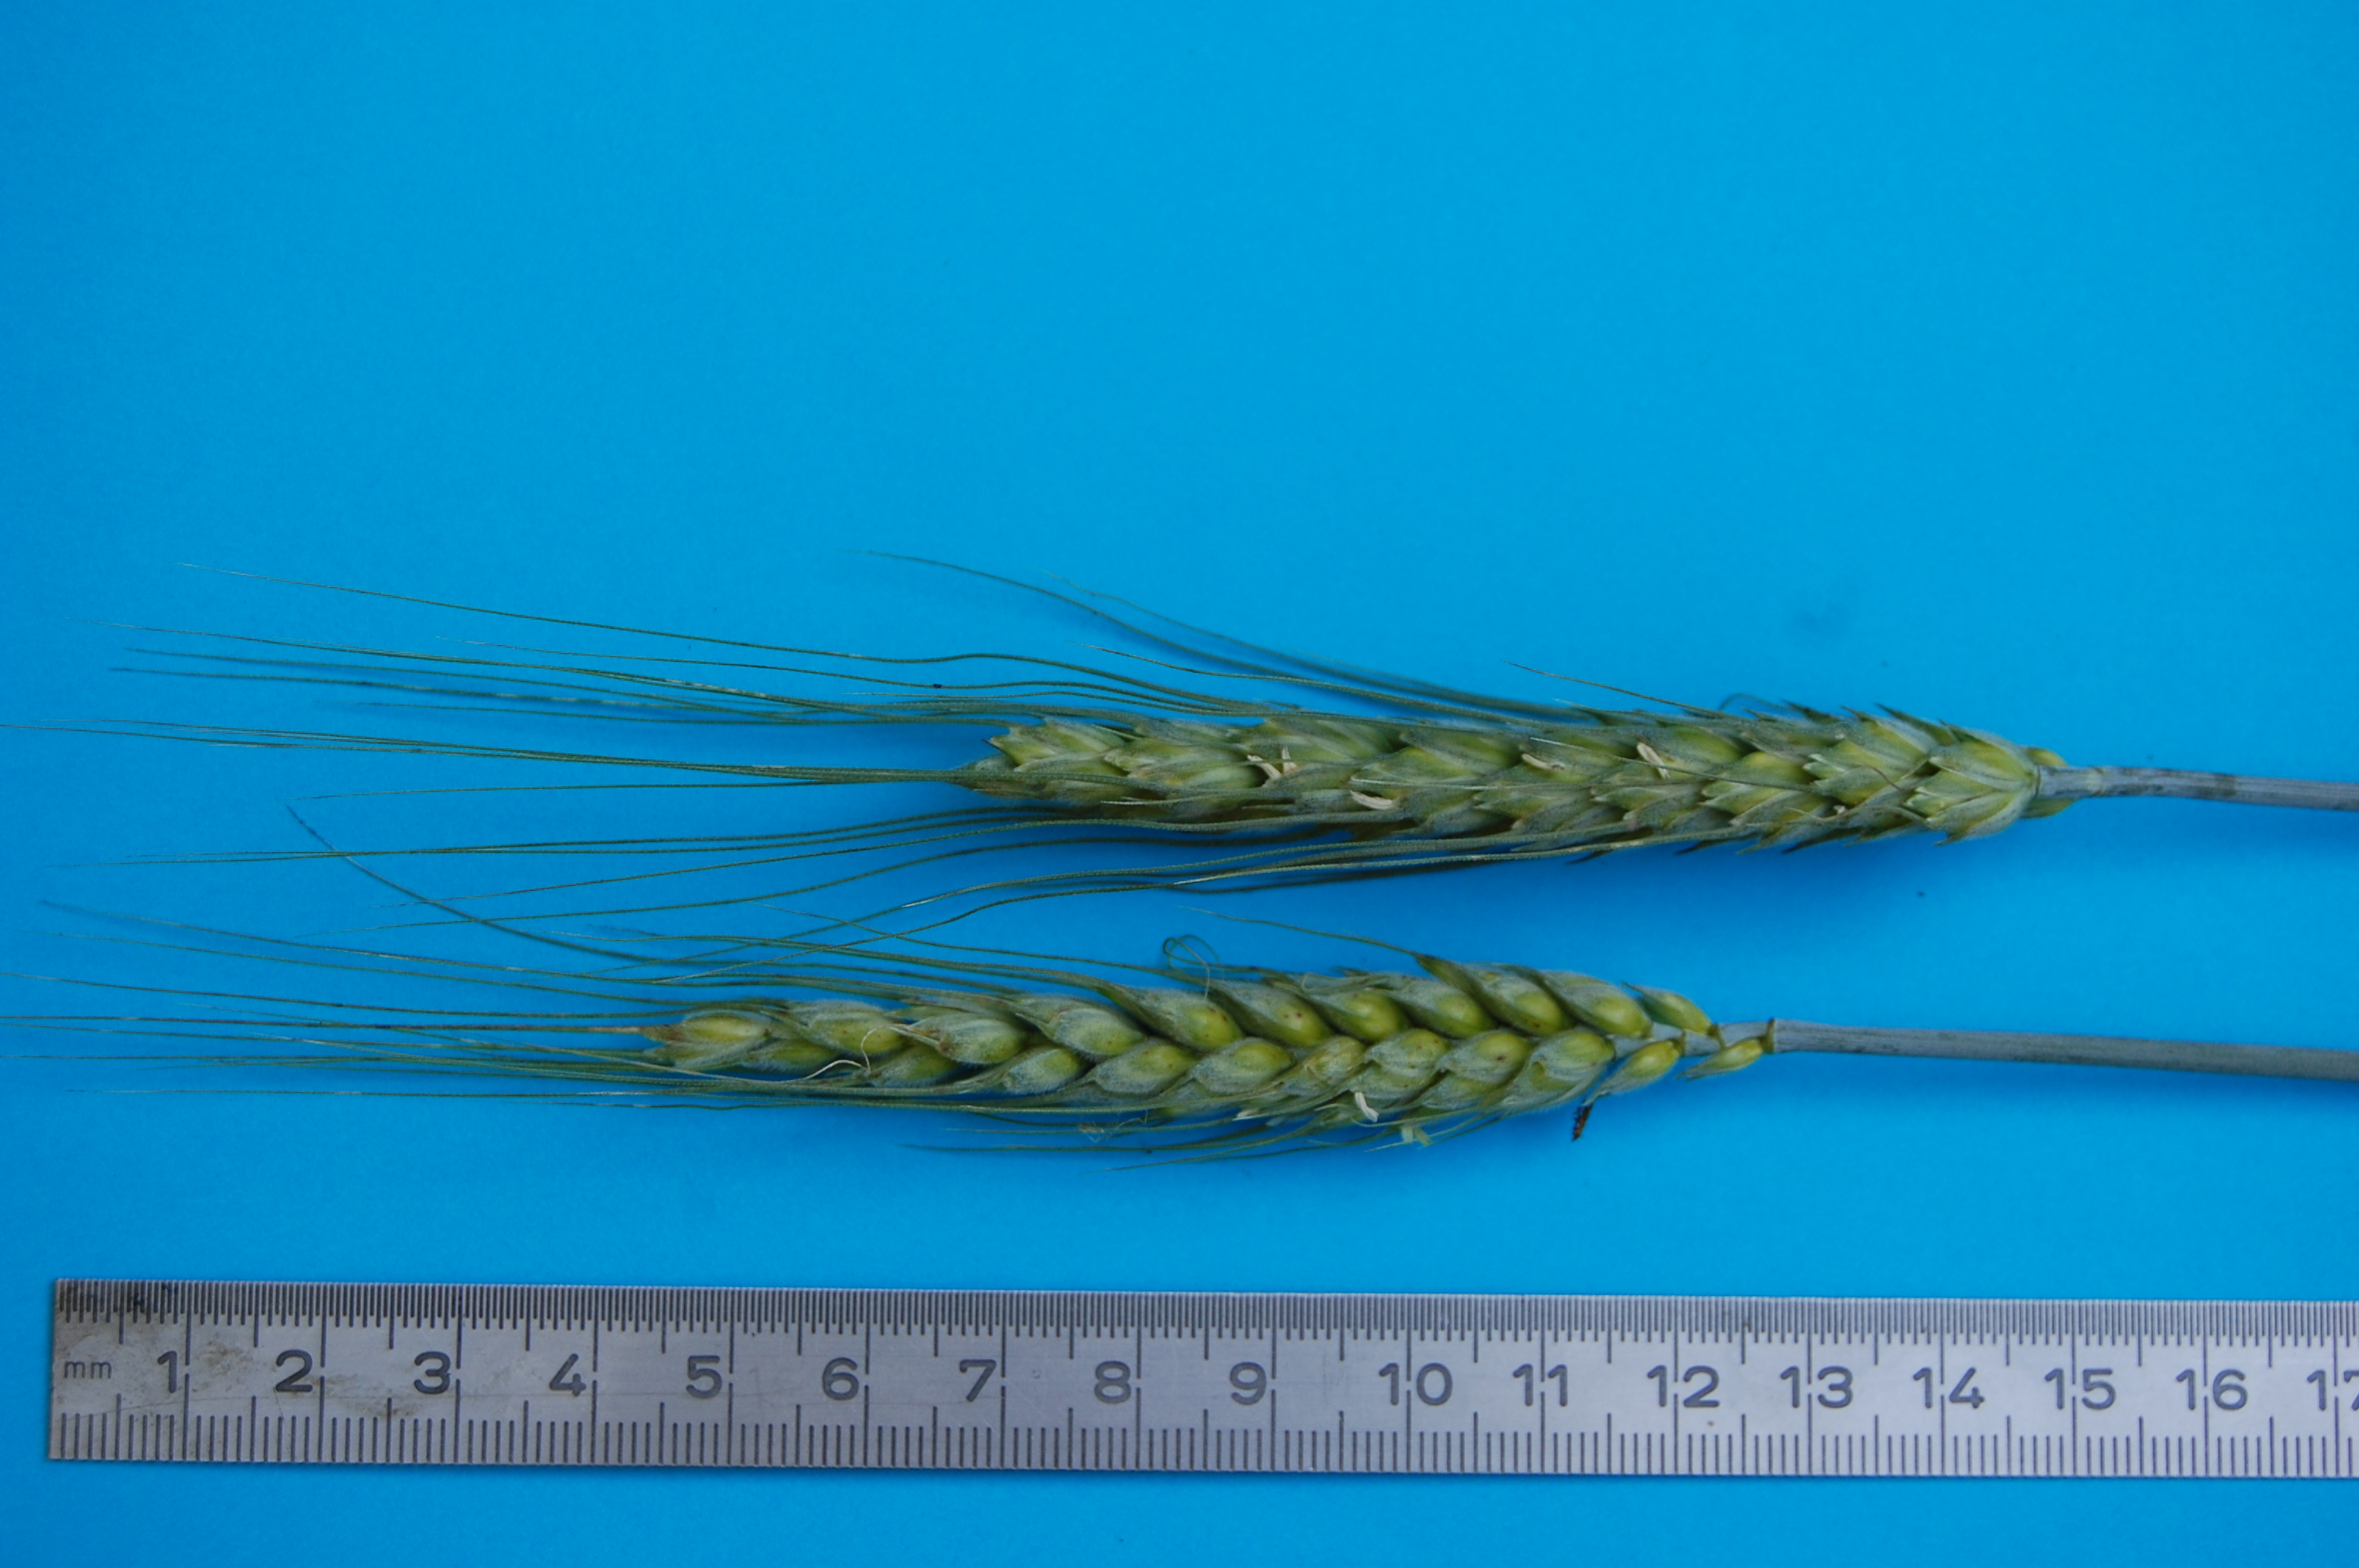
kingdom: Plantae
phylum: Tracheophyta
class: Liliopsida
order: Poales
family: Poaceae
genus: Triticum
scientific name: Triticum aestivum
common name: Common wheat
